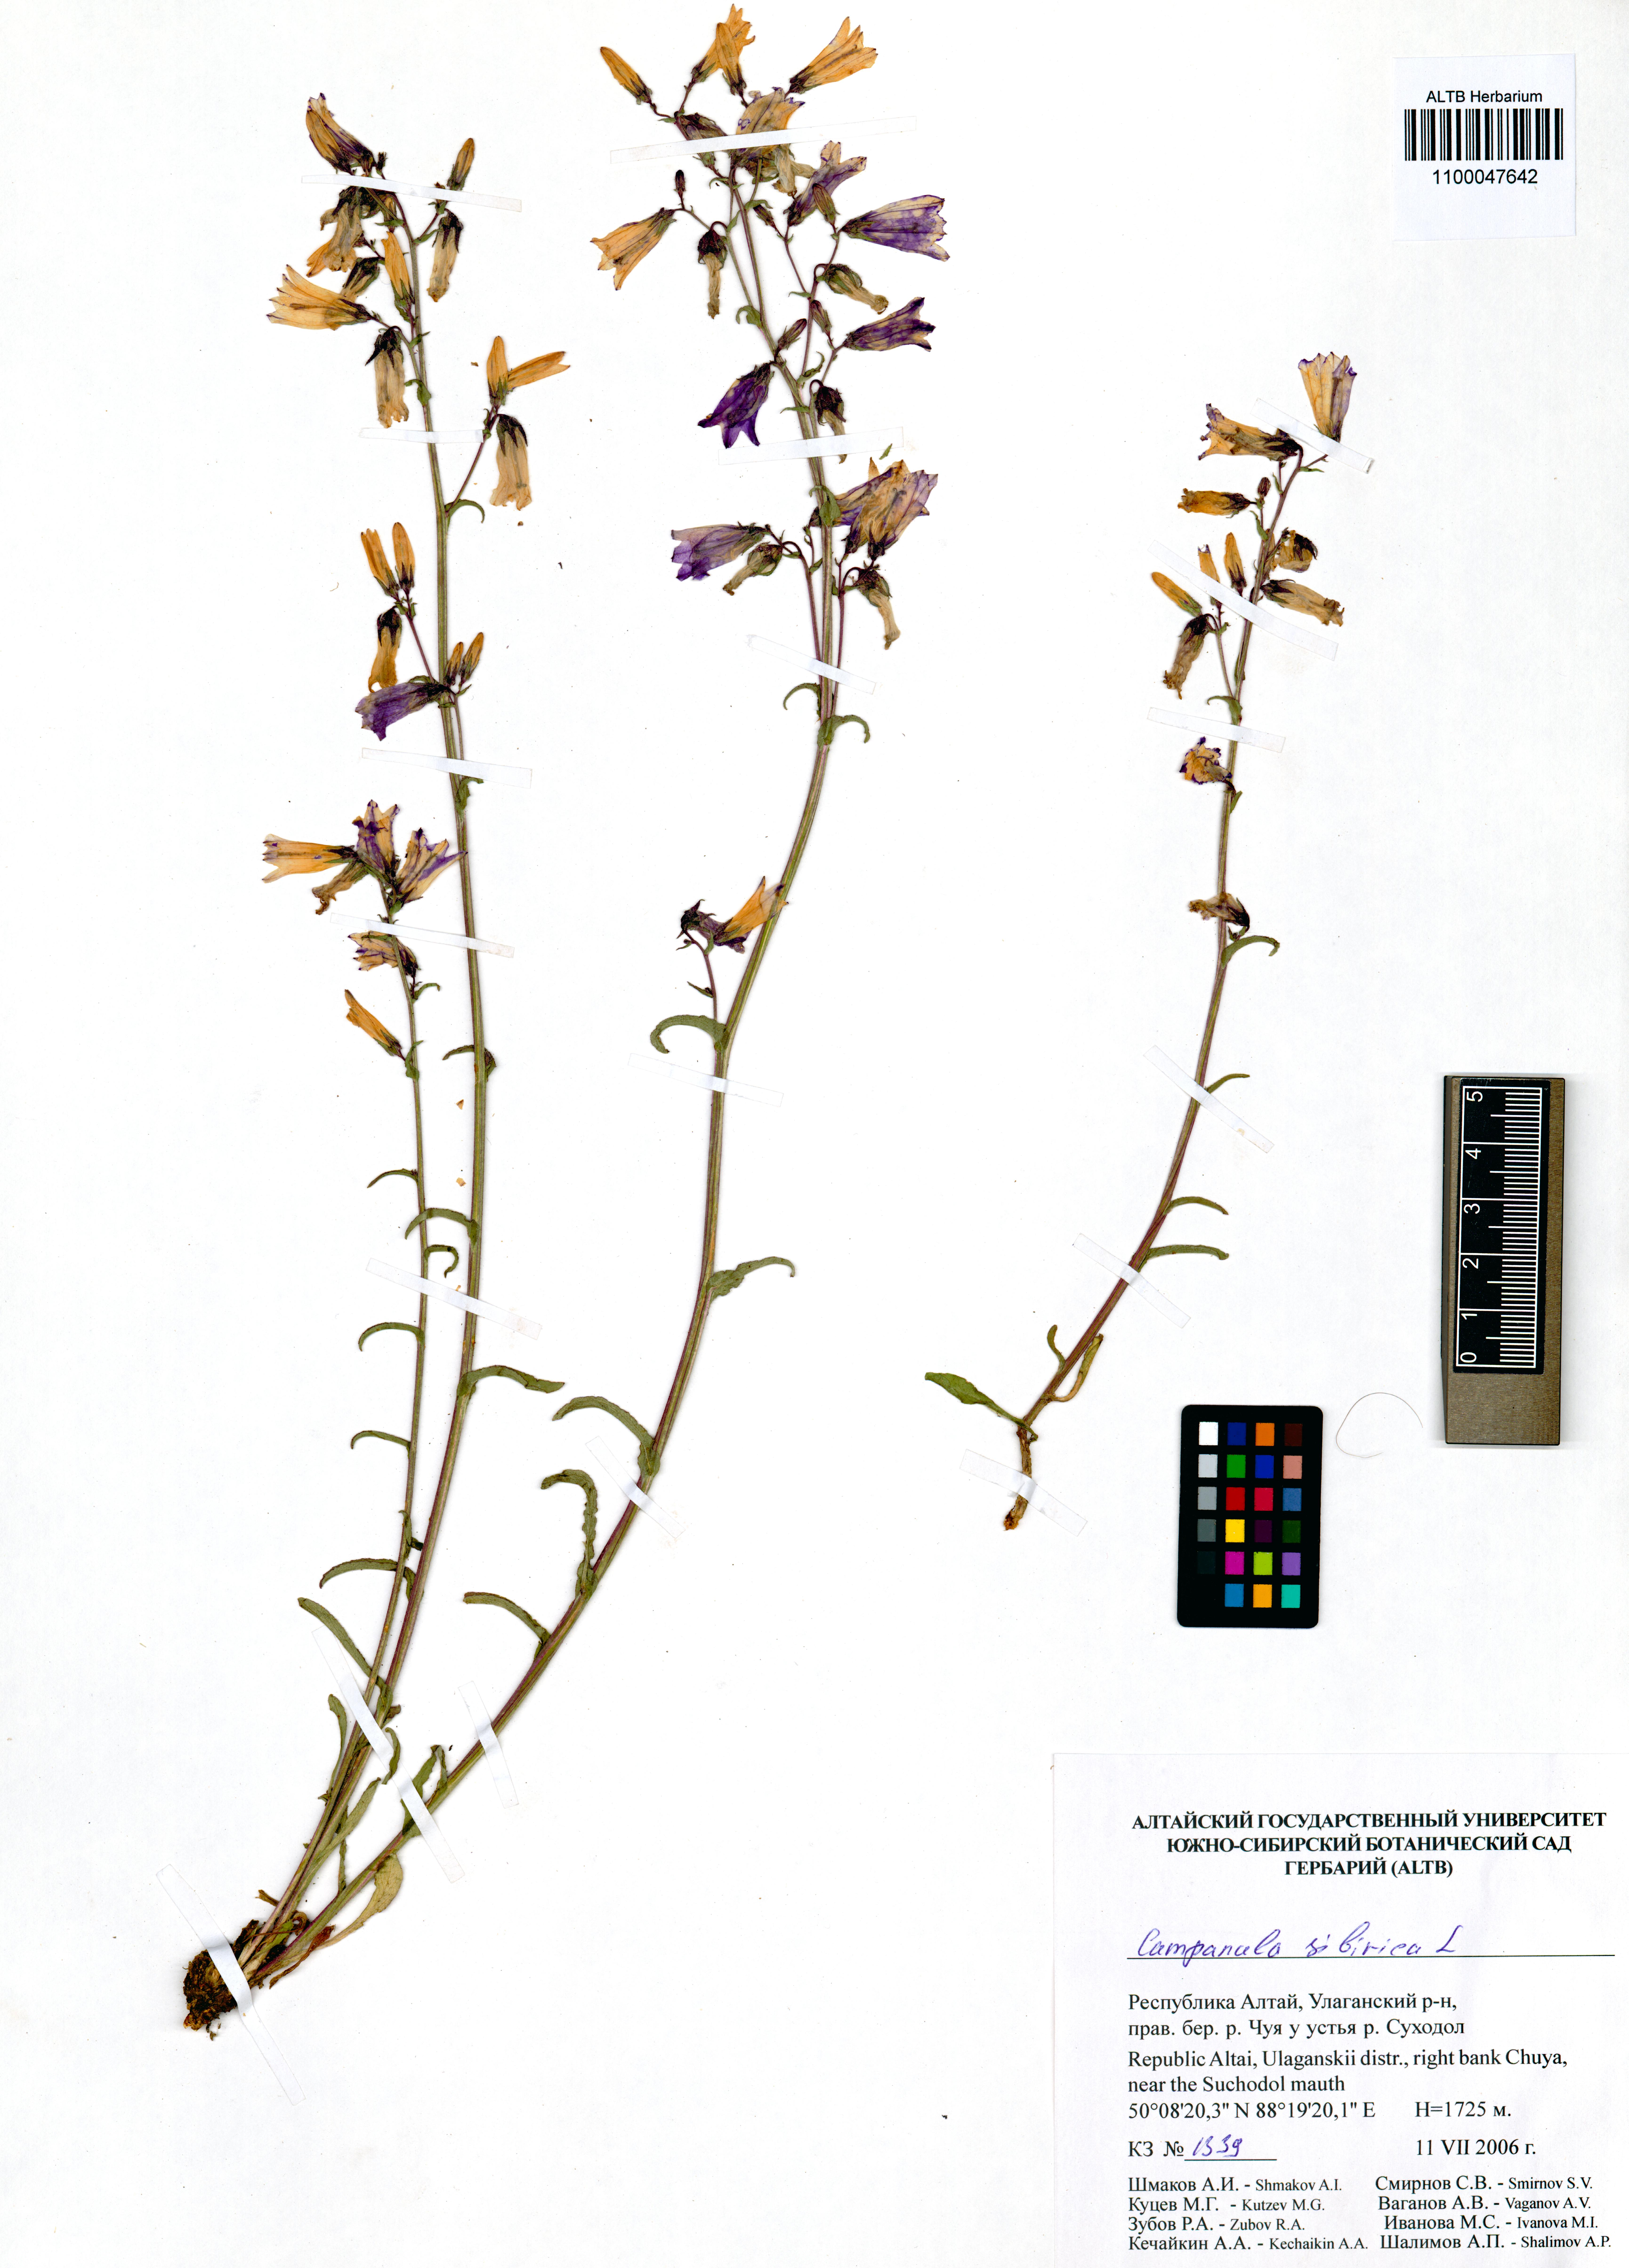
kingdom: Plantae
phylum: Tracheophyta
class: Magnoliopsida
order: Asterales
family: Campanulaceae
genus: Campanula
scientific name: Campanula sibirica
